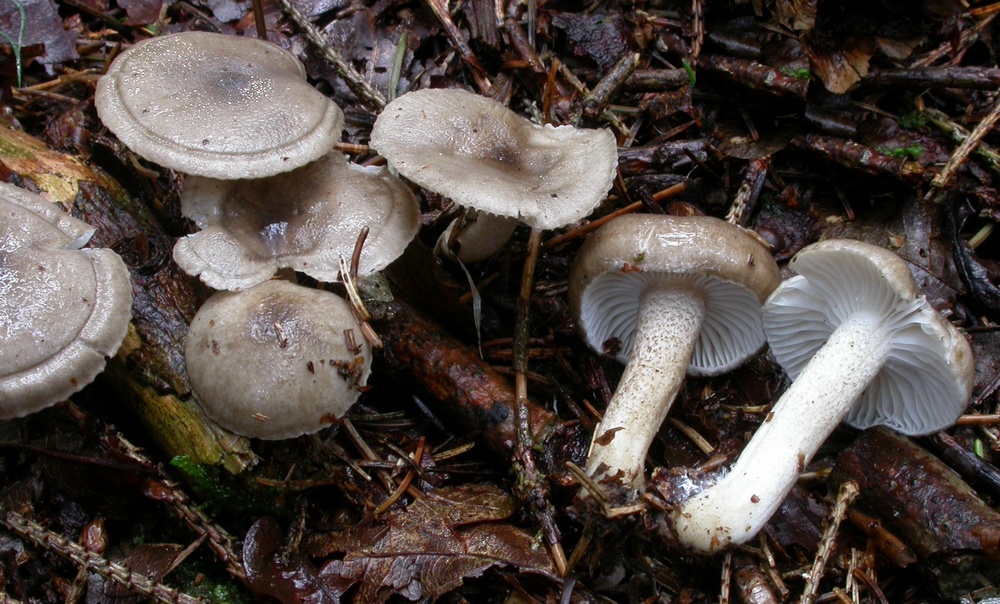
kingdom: Fungi
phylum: Basidiomycota
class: Agaricomycetes
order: Agaricales
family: Hygrophoraceae
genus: Hygrophorus
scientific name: Hygrophorus pustulatus
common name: mørkprikket sneglehat
